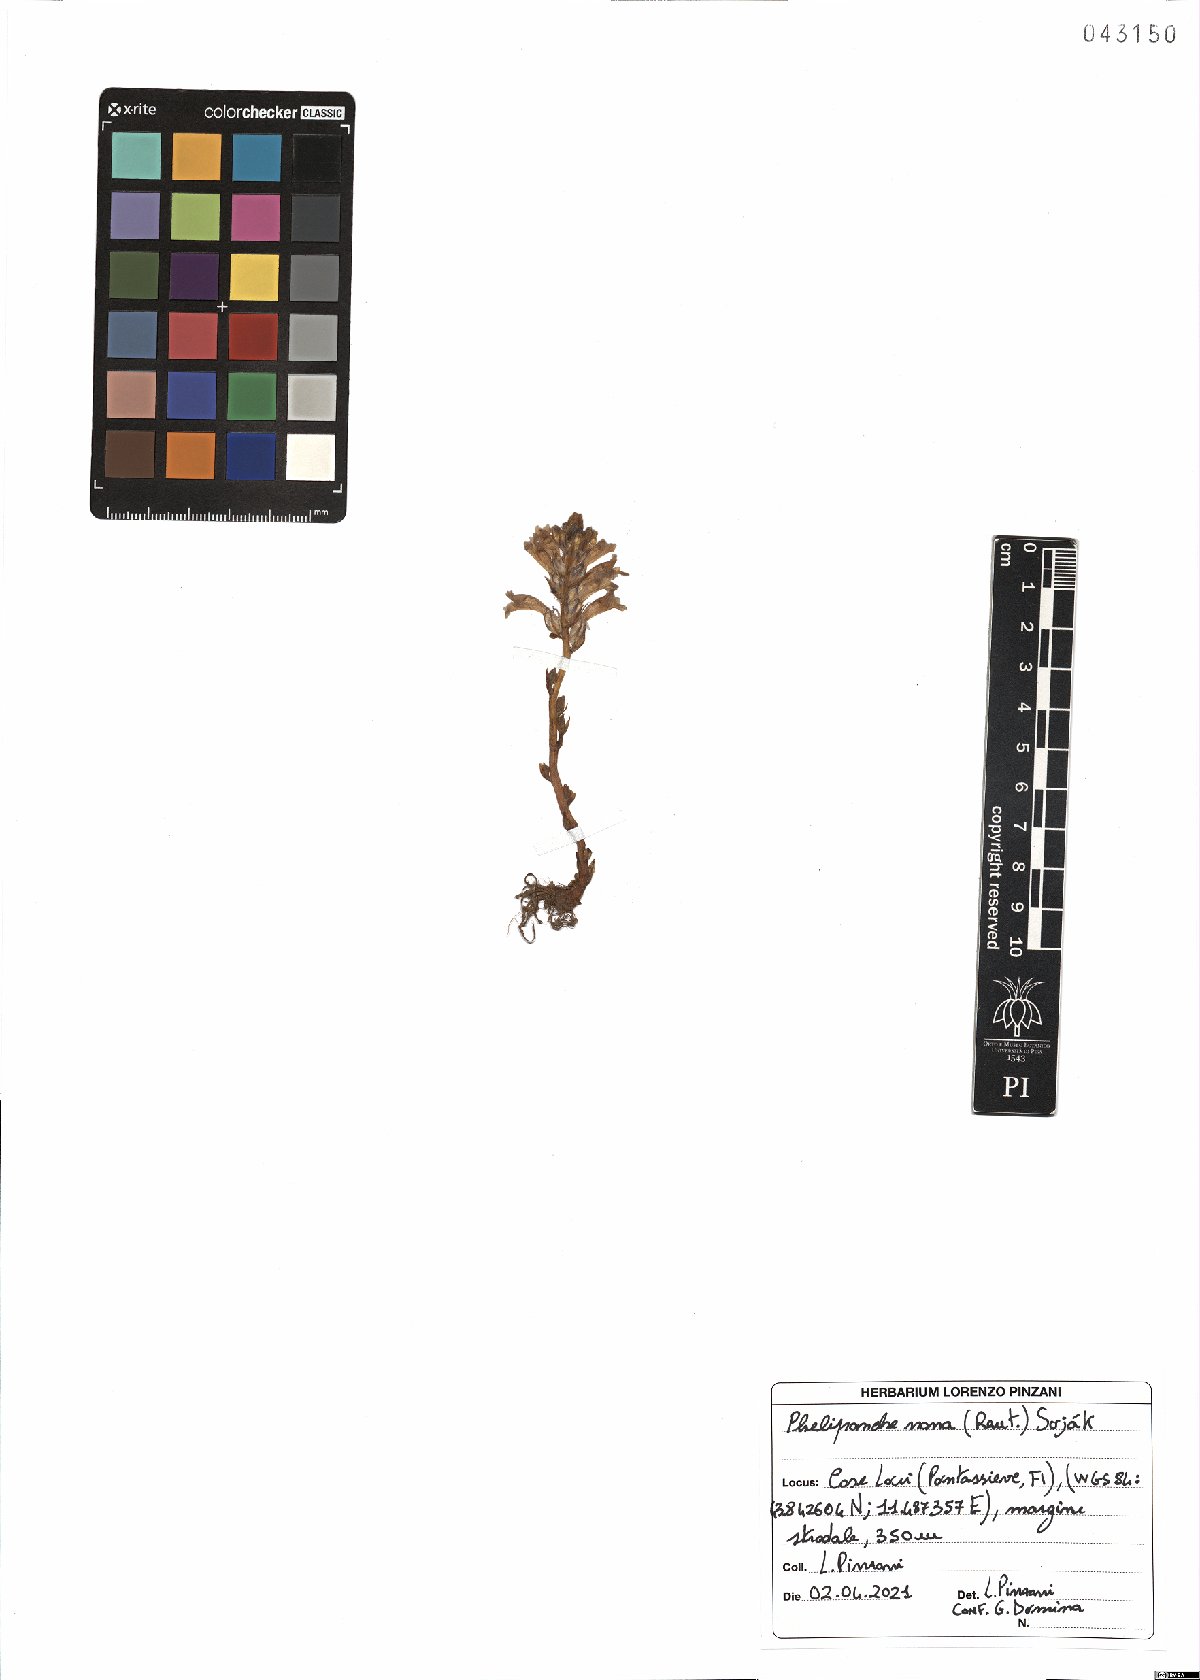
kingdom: Plantae
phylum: Tracheophyta
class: Magnoliopsida
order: Lamiales
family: Orobanchaceae
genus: Phelipanche
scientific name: Phelipanche mutelii
